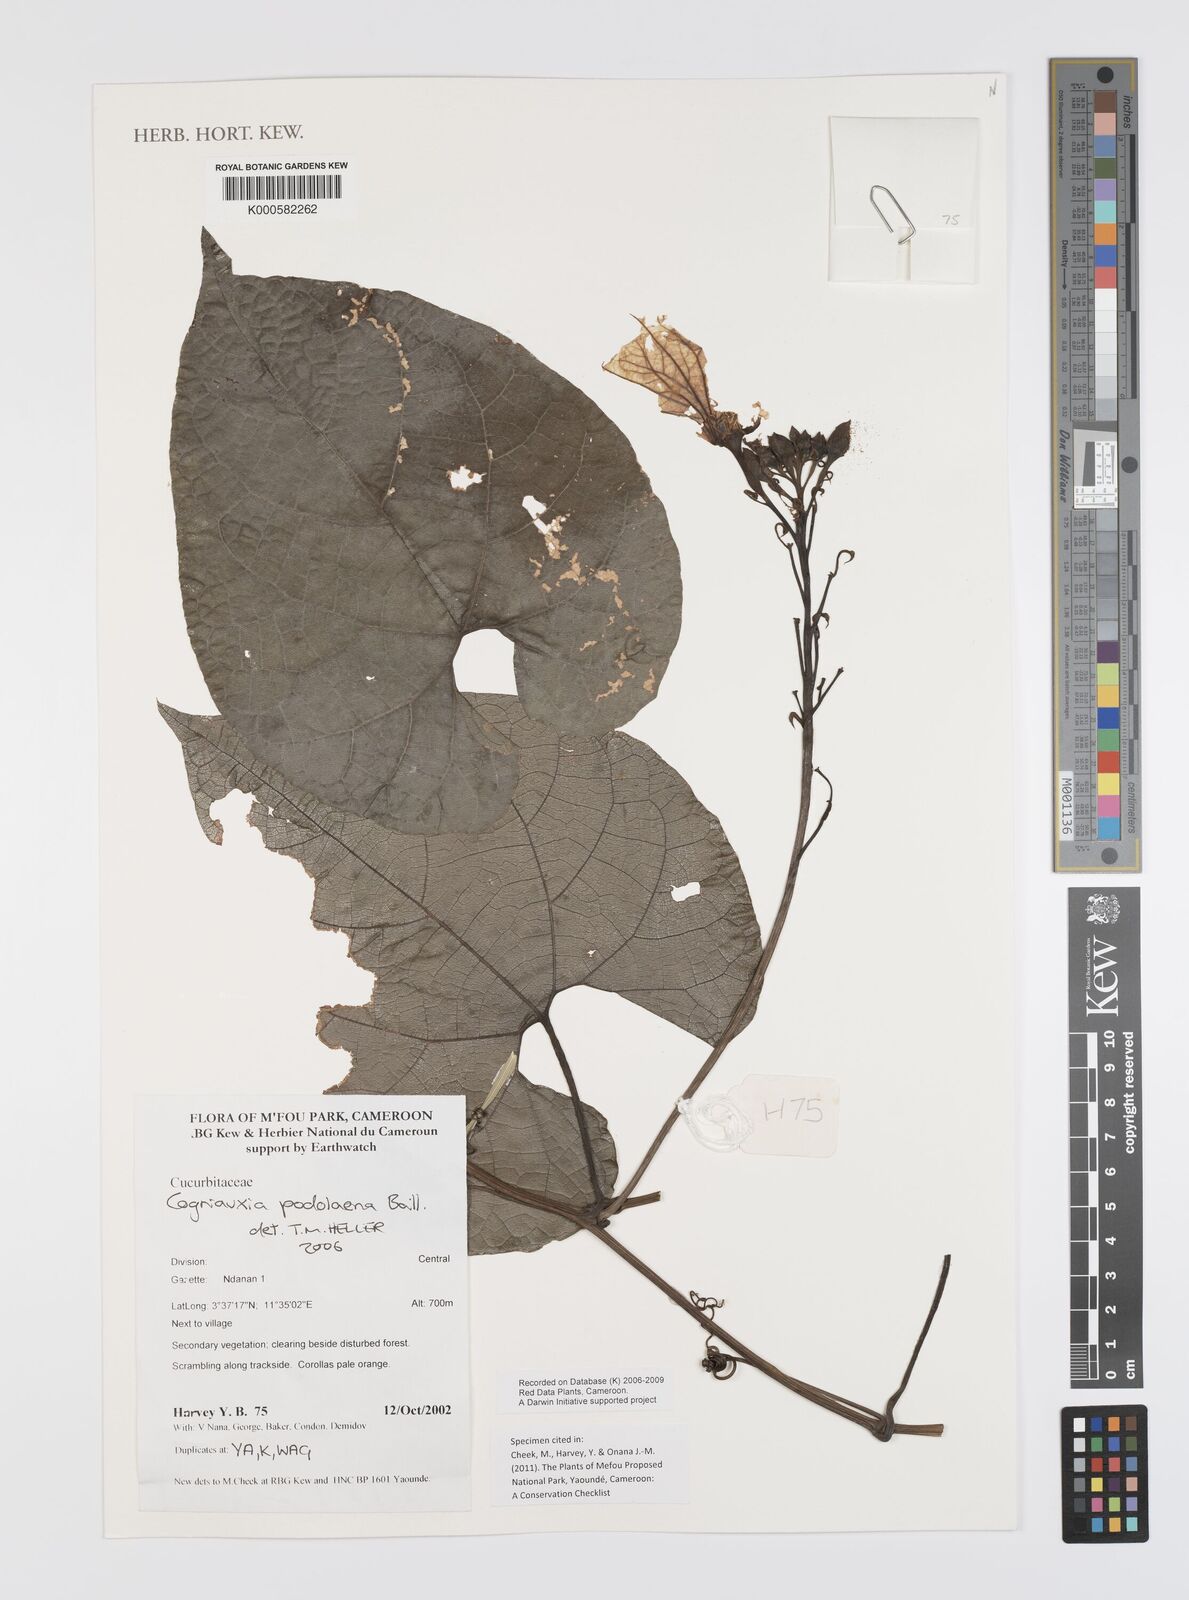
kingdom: Plantae
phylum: Tracheophyta
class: Magnoliopsida
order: Cucurbitales
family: Cucurbitaceae
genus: Cogniauxia
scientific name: Cogniauxia podolaena
